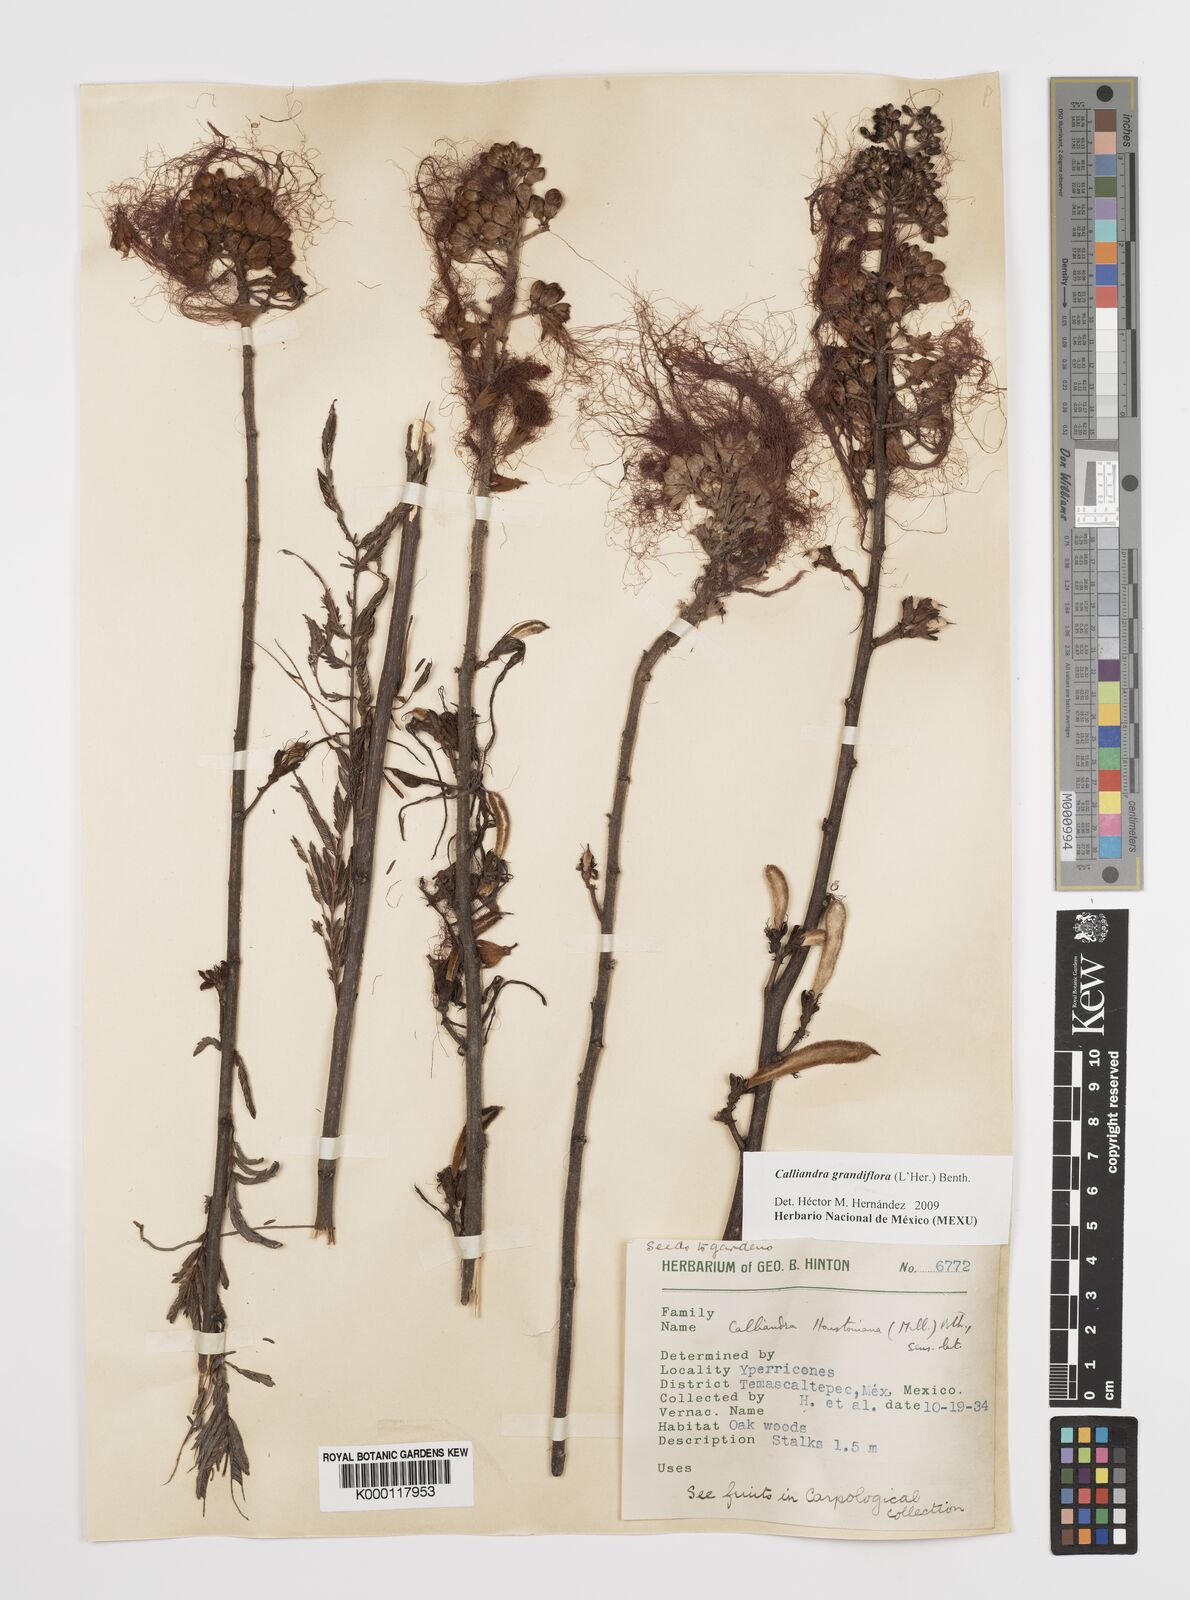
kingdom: Plantae
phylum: Tracheophyta
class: Magnoliopsida
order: Fabales
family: Fabaceae
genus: Calliandra
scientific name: Calliandra houstoniana
